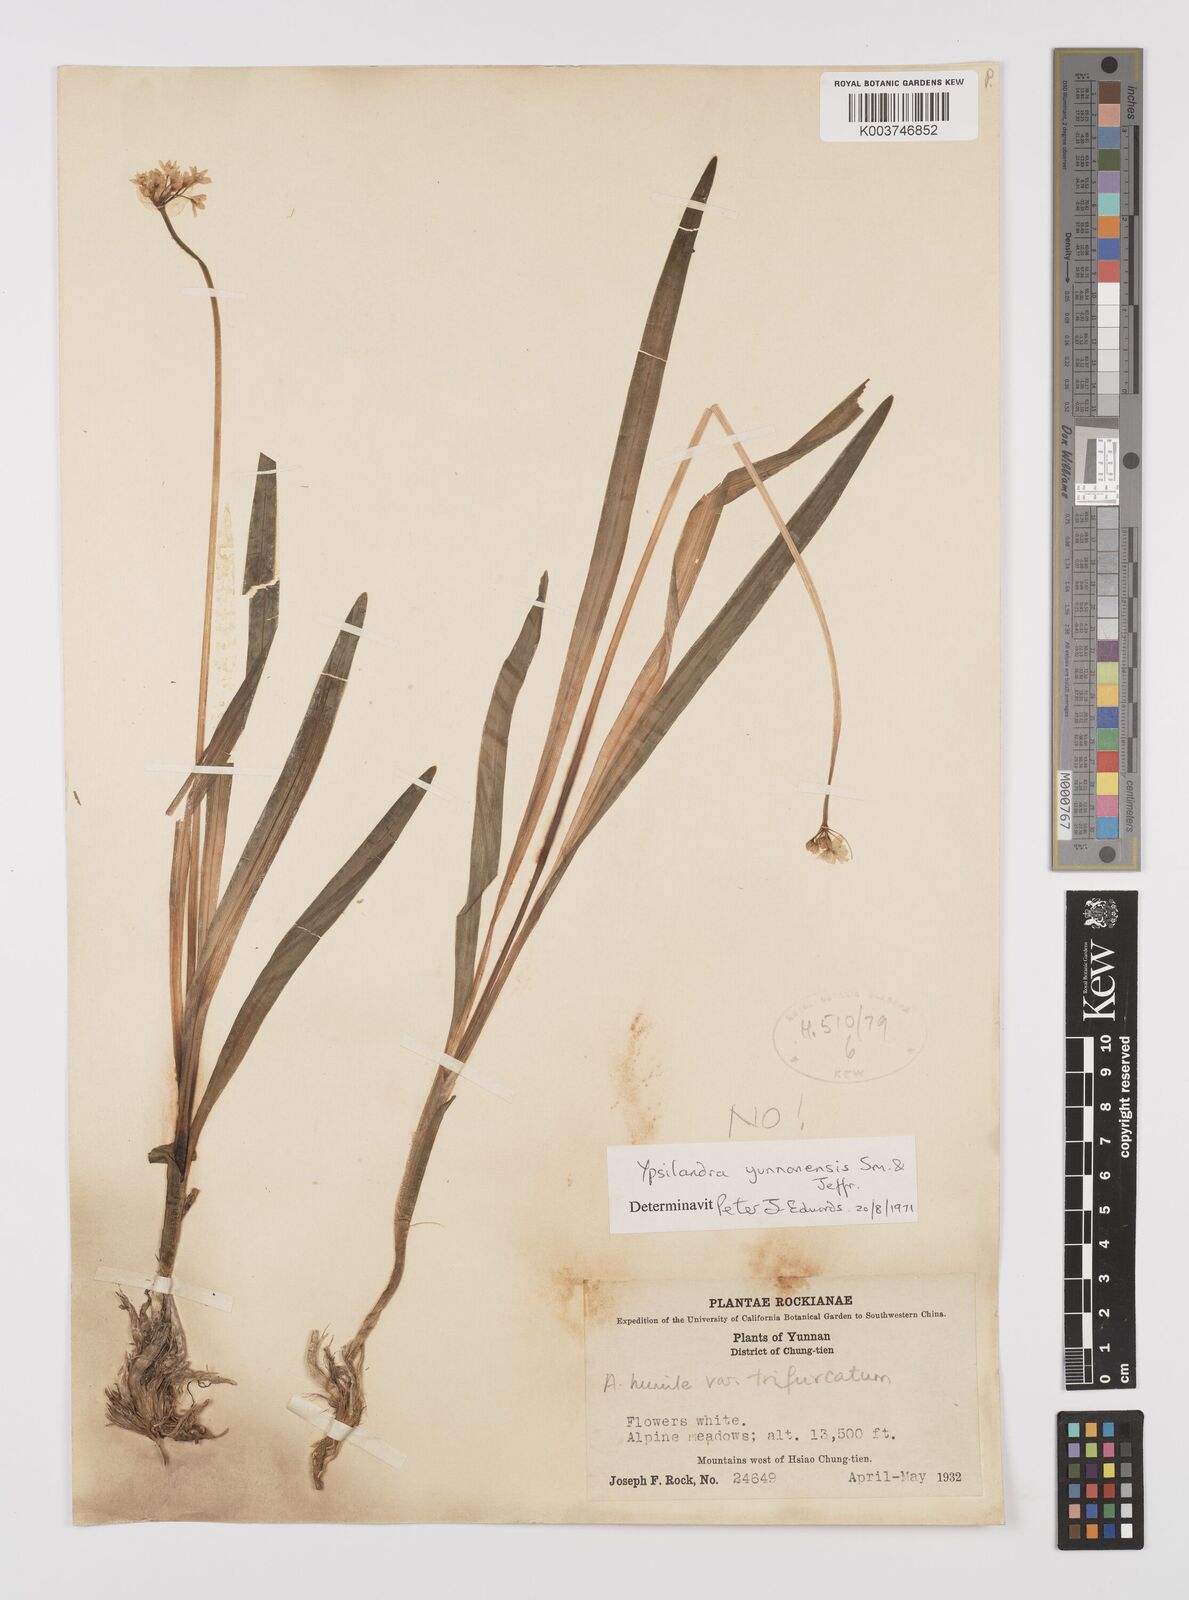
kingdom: Plantae
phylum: Tracheophyta
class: Liliopsida
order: Asparagales
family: Amaryllidaceae
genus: Allium
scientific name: Allium trifurcatum
